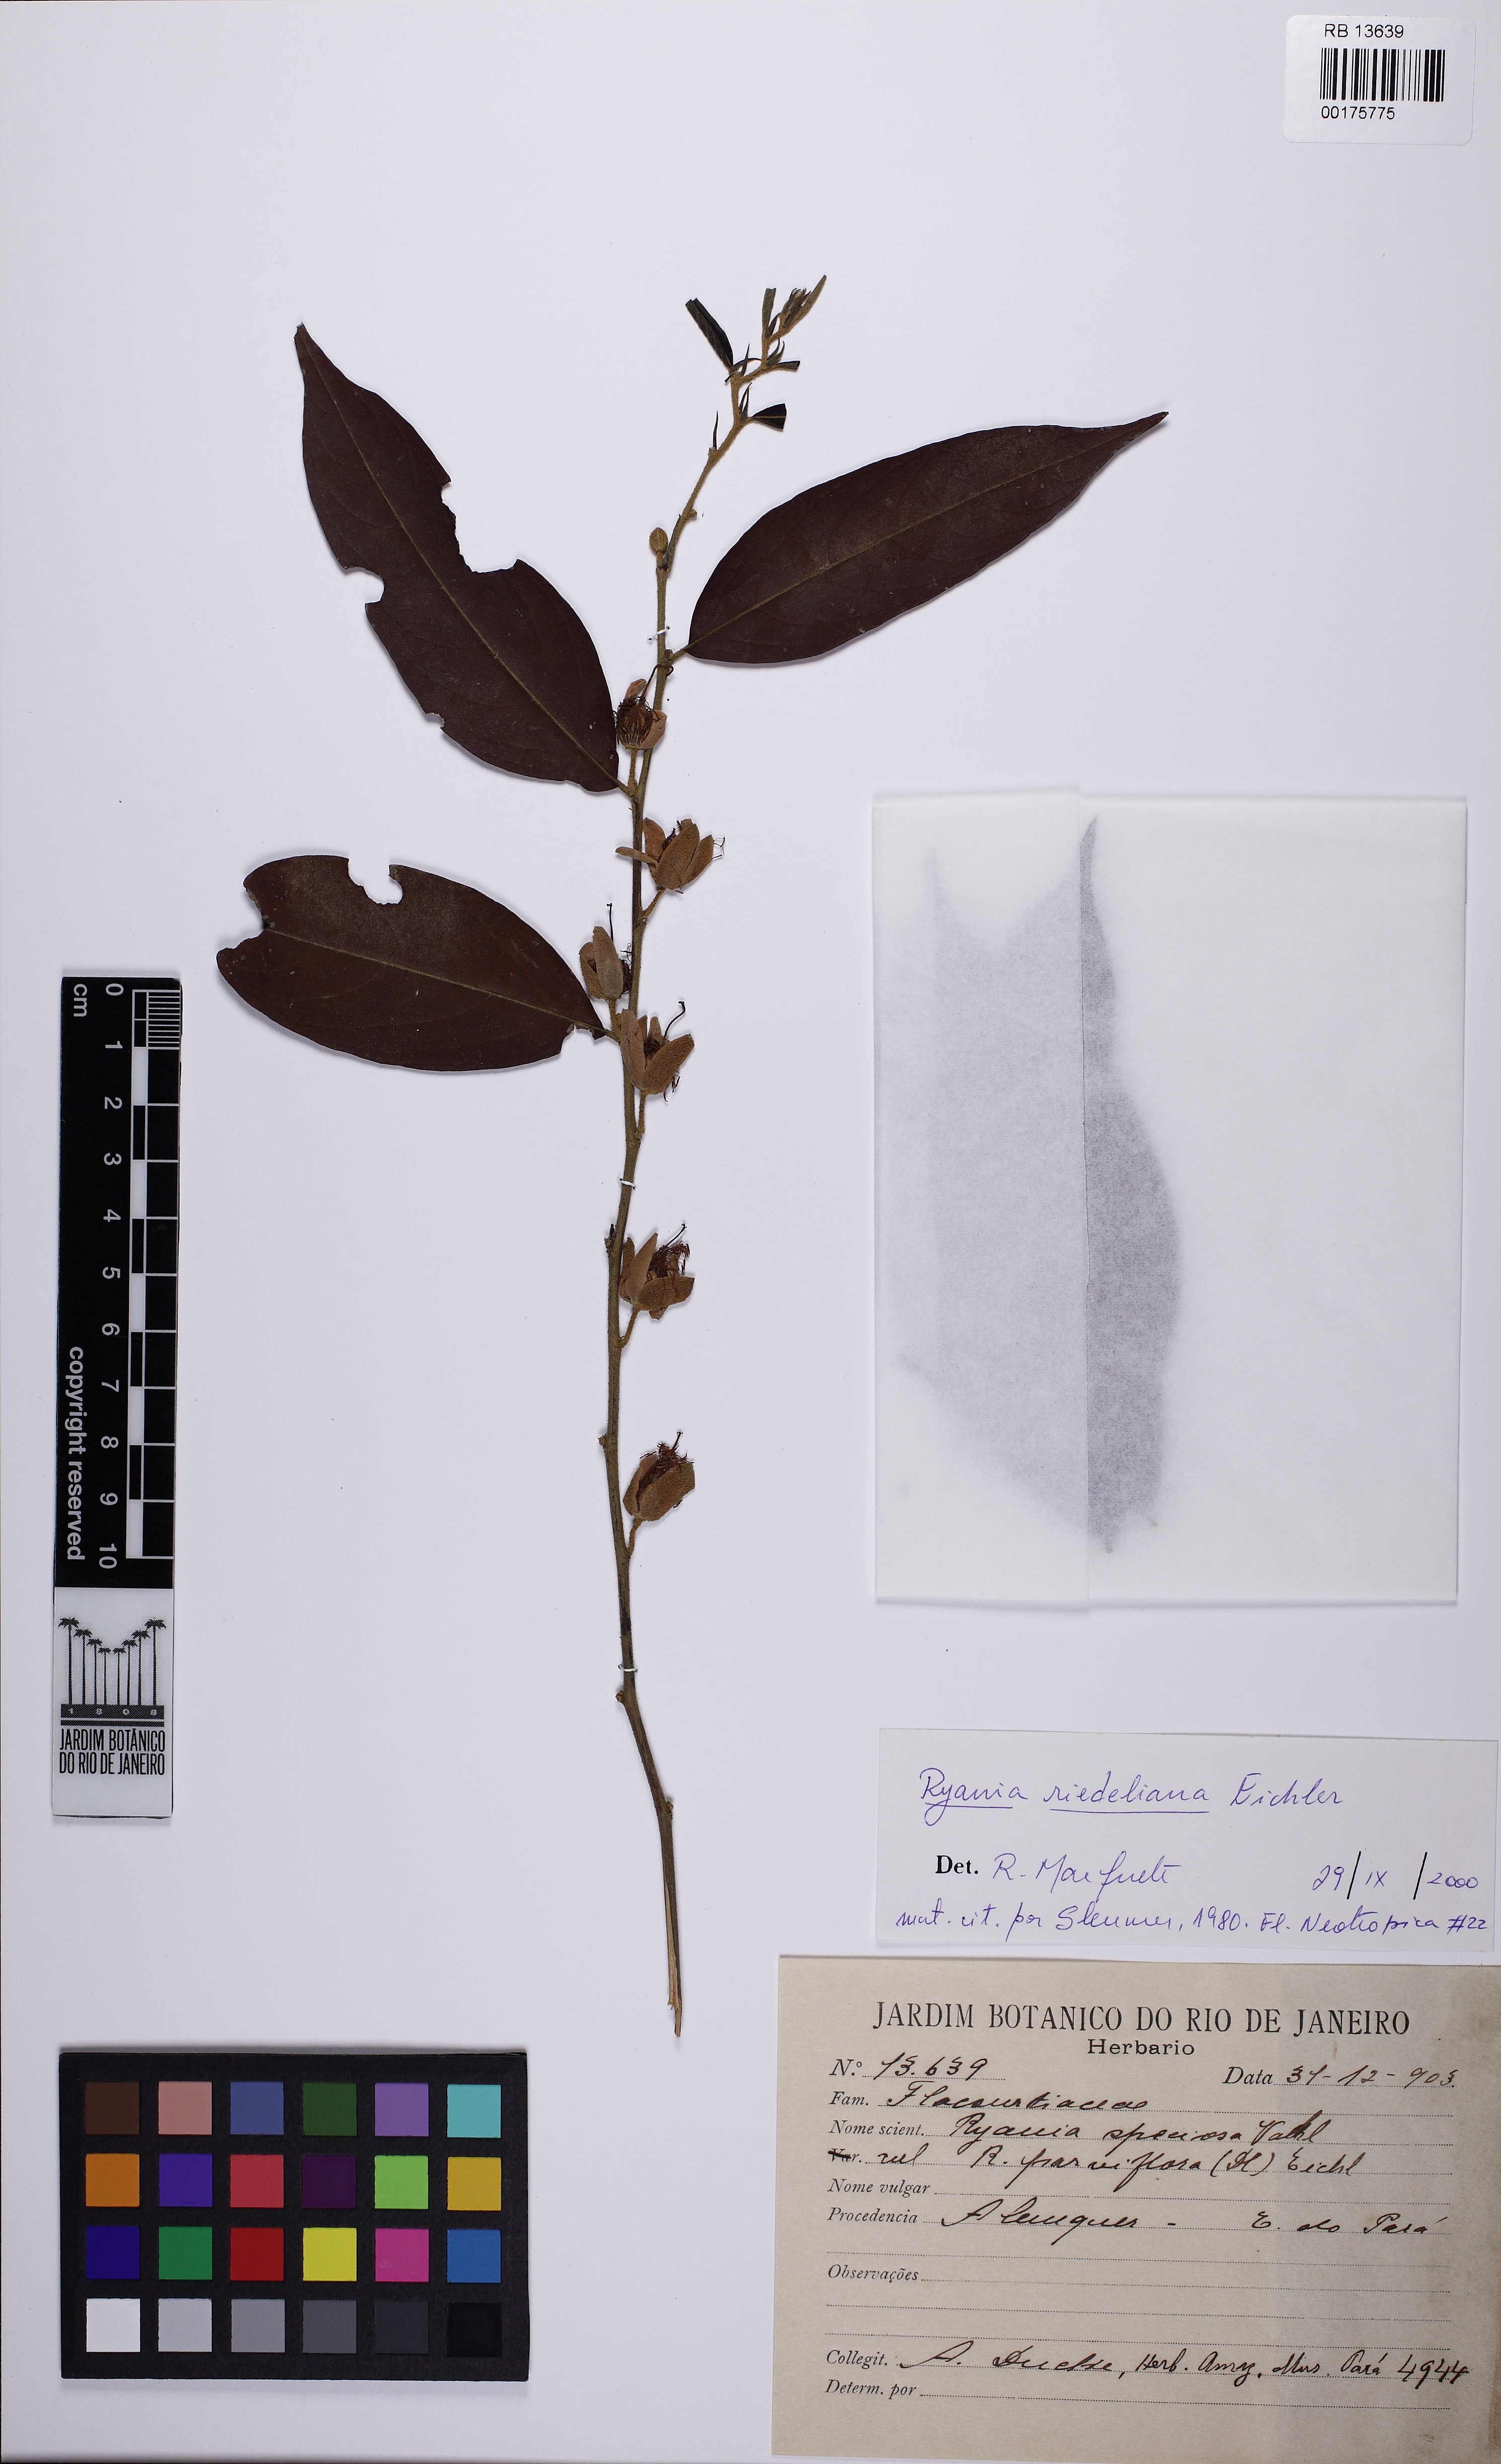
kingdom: Plantae
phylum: Tracheophyta
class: Magnoliopsida
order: Malpighiales
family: Salicaceae
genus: Ryania
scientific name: Ryania riedeliana
